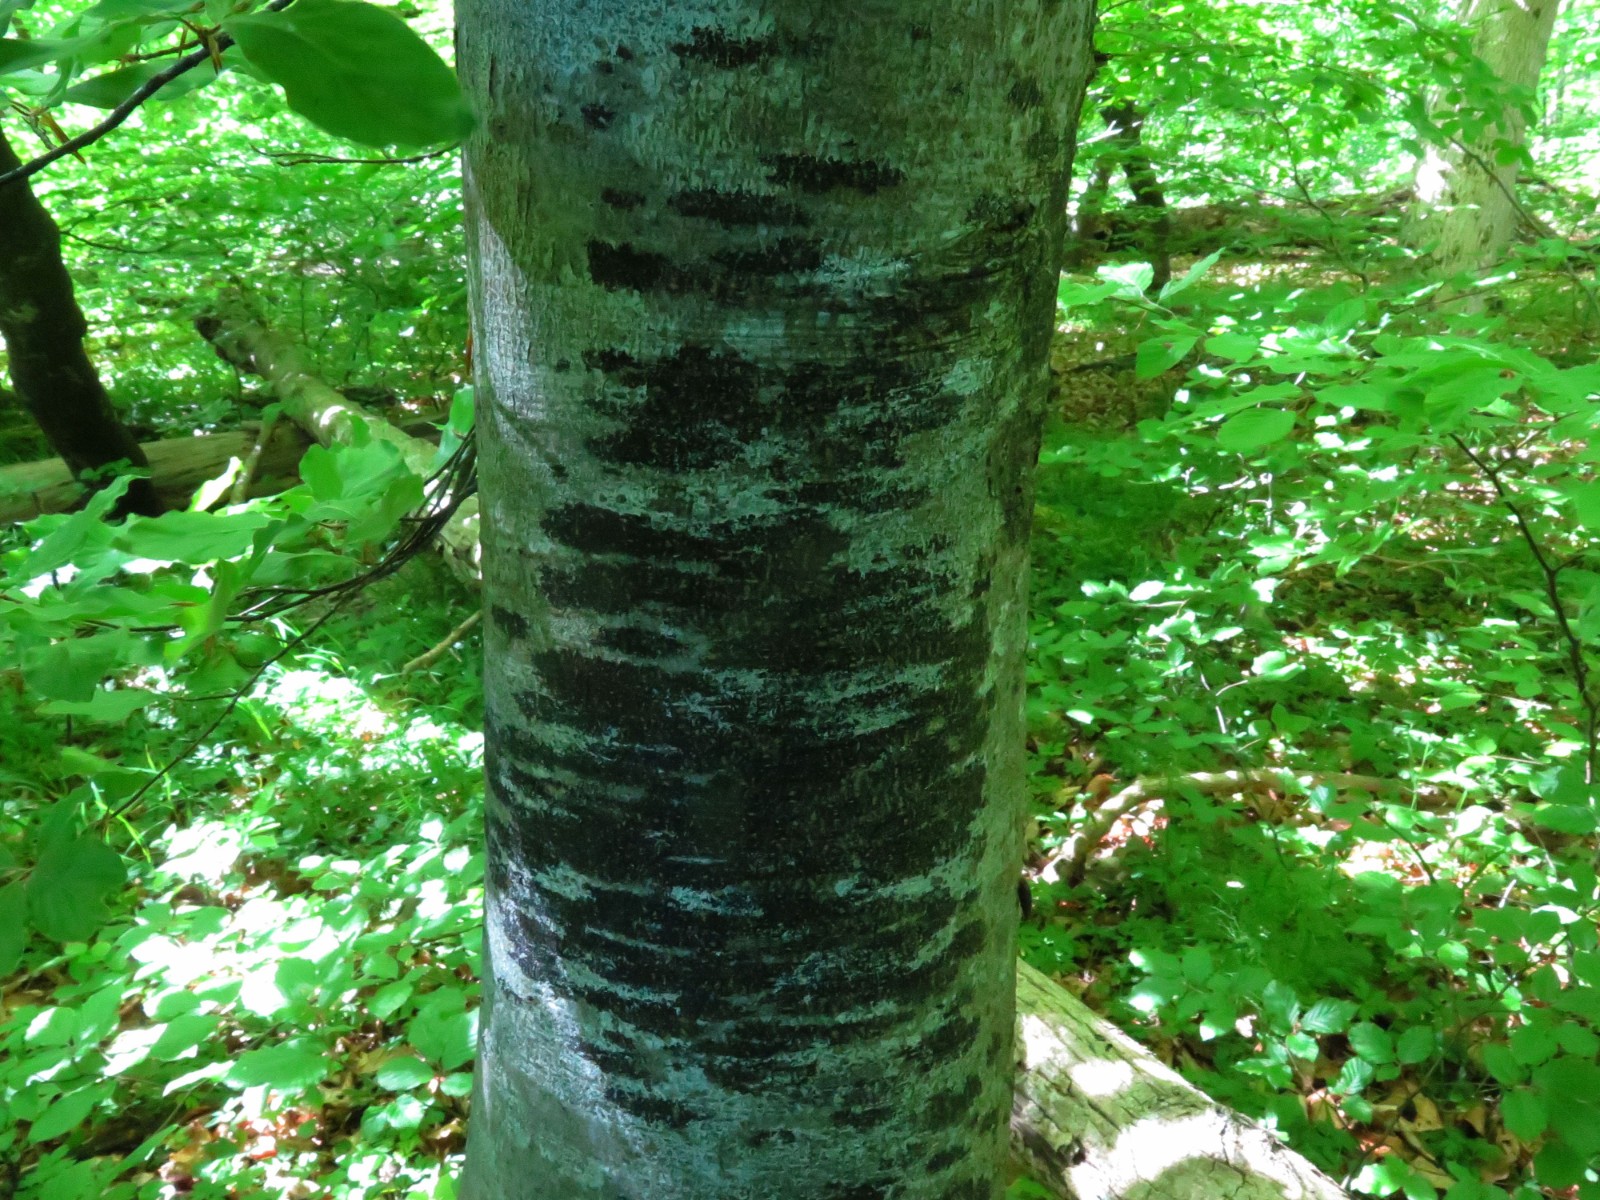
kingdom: Fungi
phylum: Ascomycota
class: Leotiomycetes
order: Rhytismatales
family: Ascodichaenaceae
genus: Ascodichaena
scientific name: Ascodichaena rugosa
